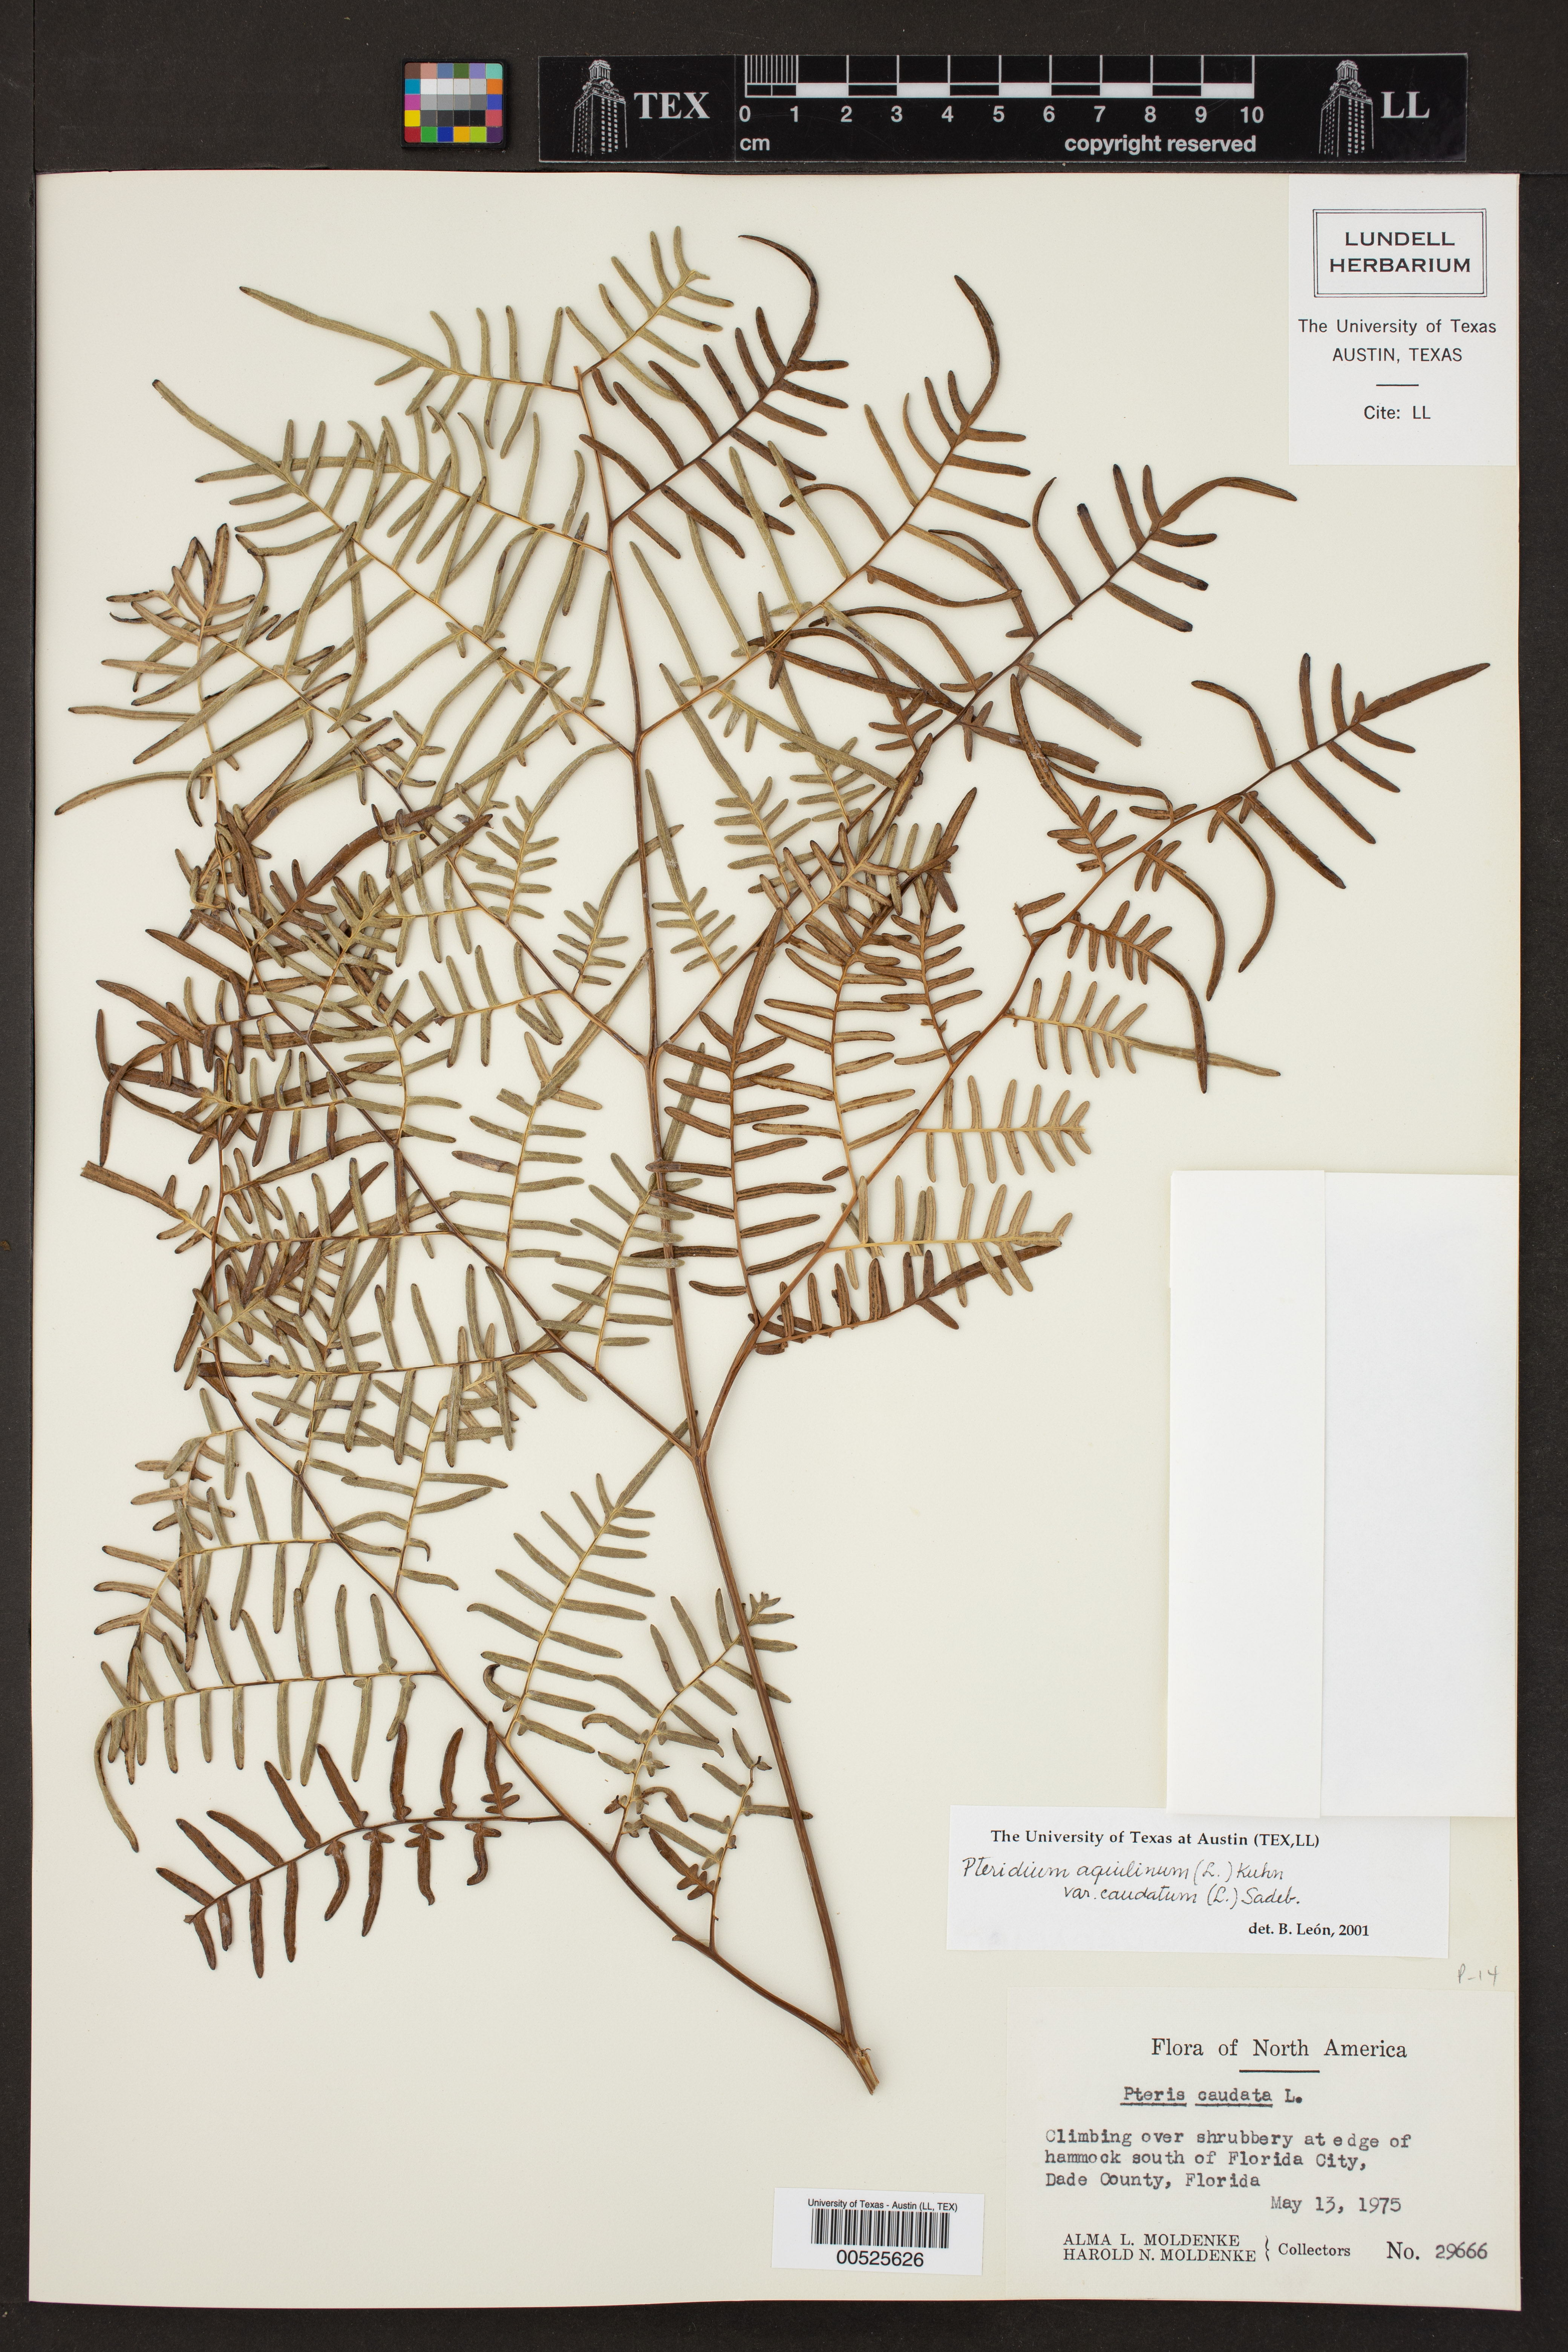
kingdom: Plantae
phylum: Tracheophyta
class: Polypodiopsida
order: Polypodiales
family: Dennstaedtiaceae
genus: Pteridium
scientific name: Pteridium caudatum
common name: Southern bracken fern
